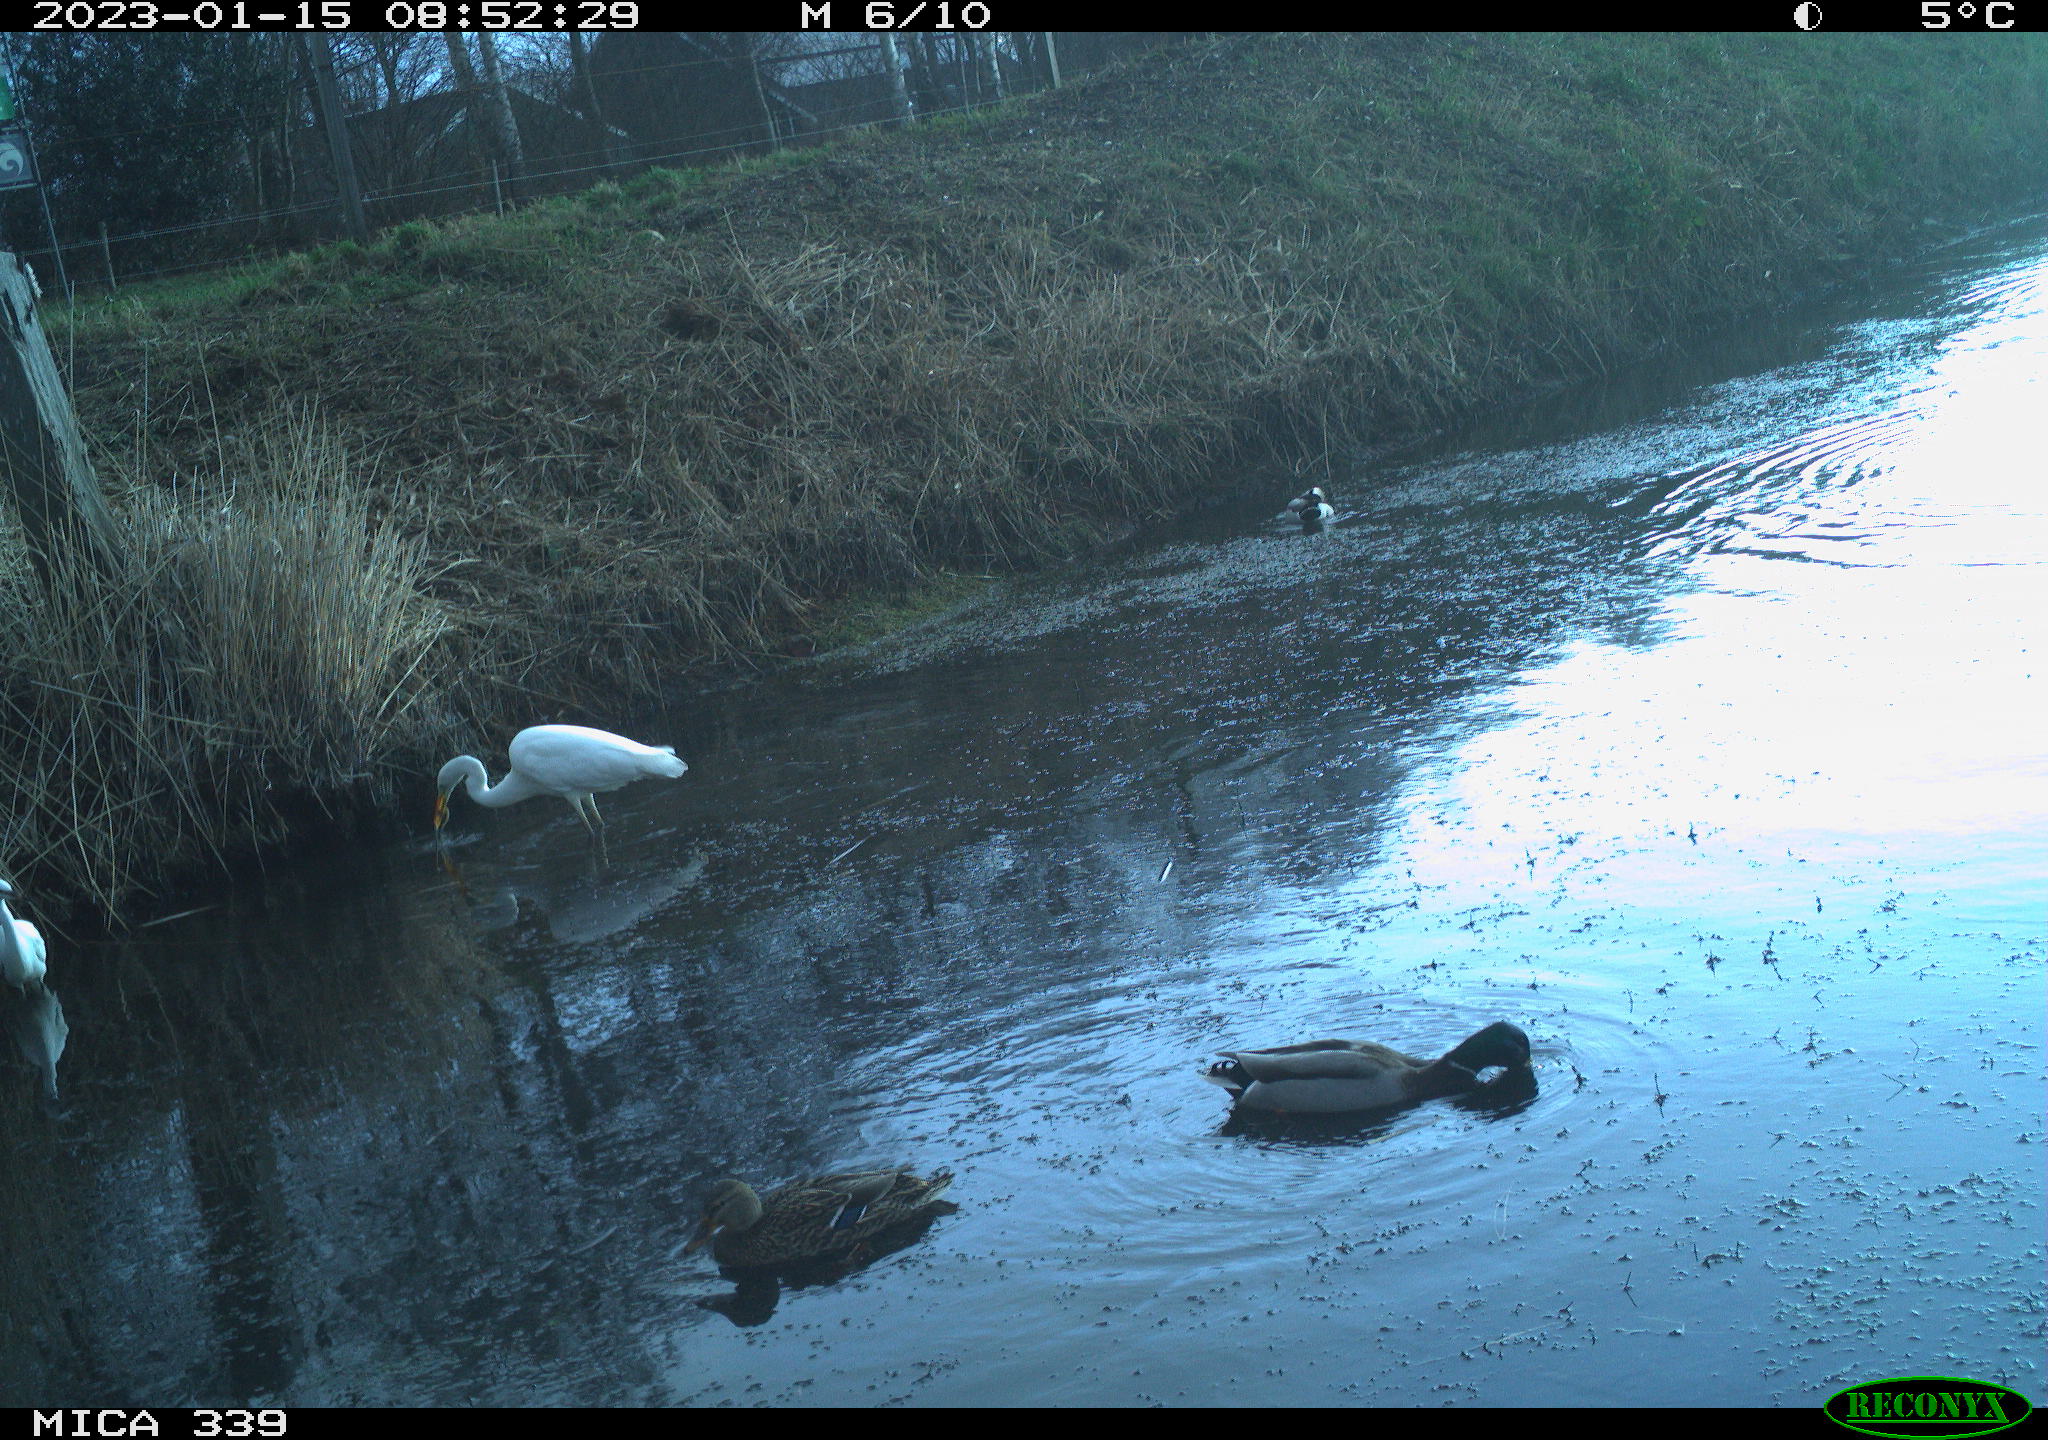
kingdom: Animalia
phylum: Chordata
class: Aves
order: Pelecaniformes
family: Ardeidae
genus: Ardea
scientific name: Ardea alba
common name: Great egret
